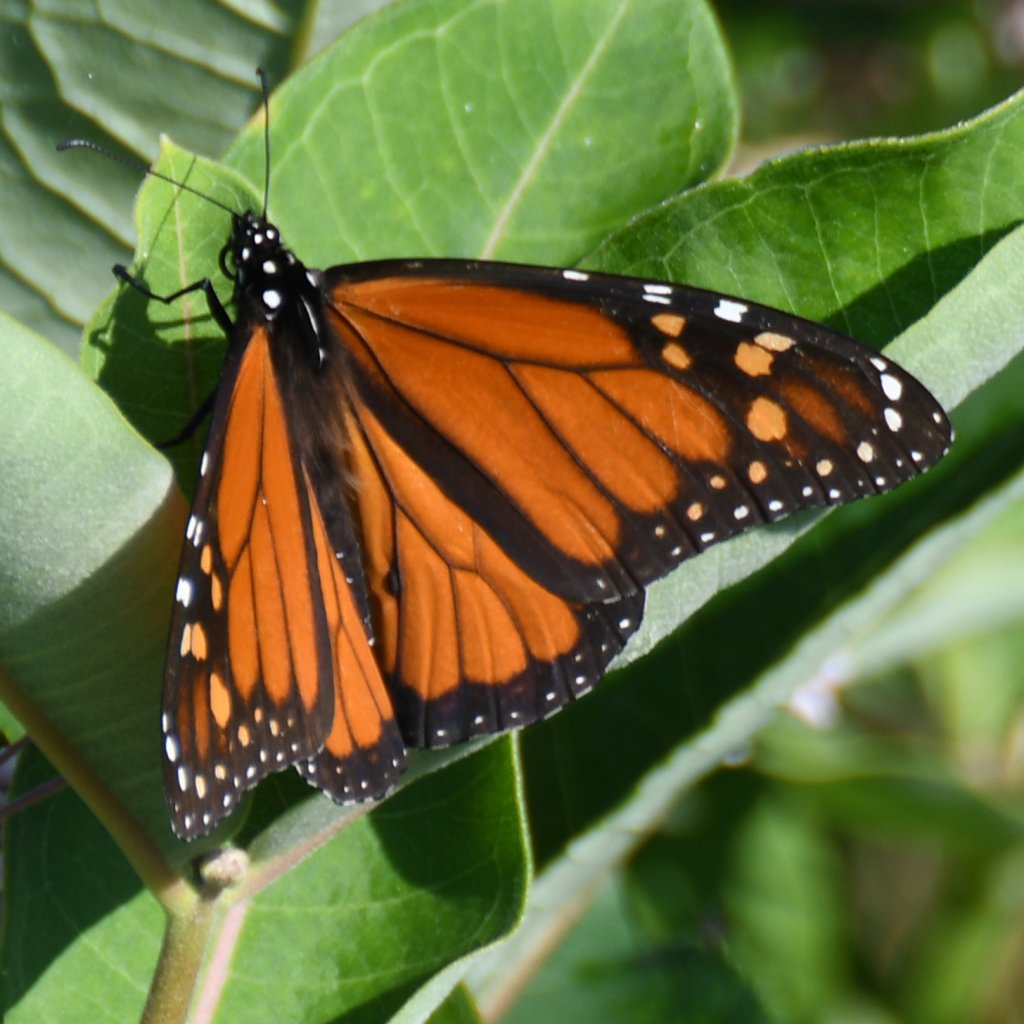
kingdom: Animalia
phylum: Arthropoda
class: Insecta
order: Lepidoptera
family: Nymphalidae
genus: Danaus
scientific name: Danaus plexippus
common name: Monarch
